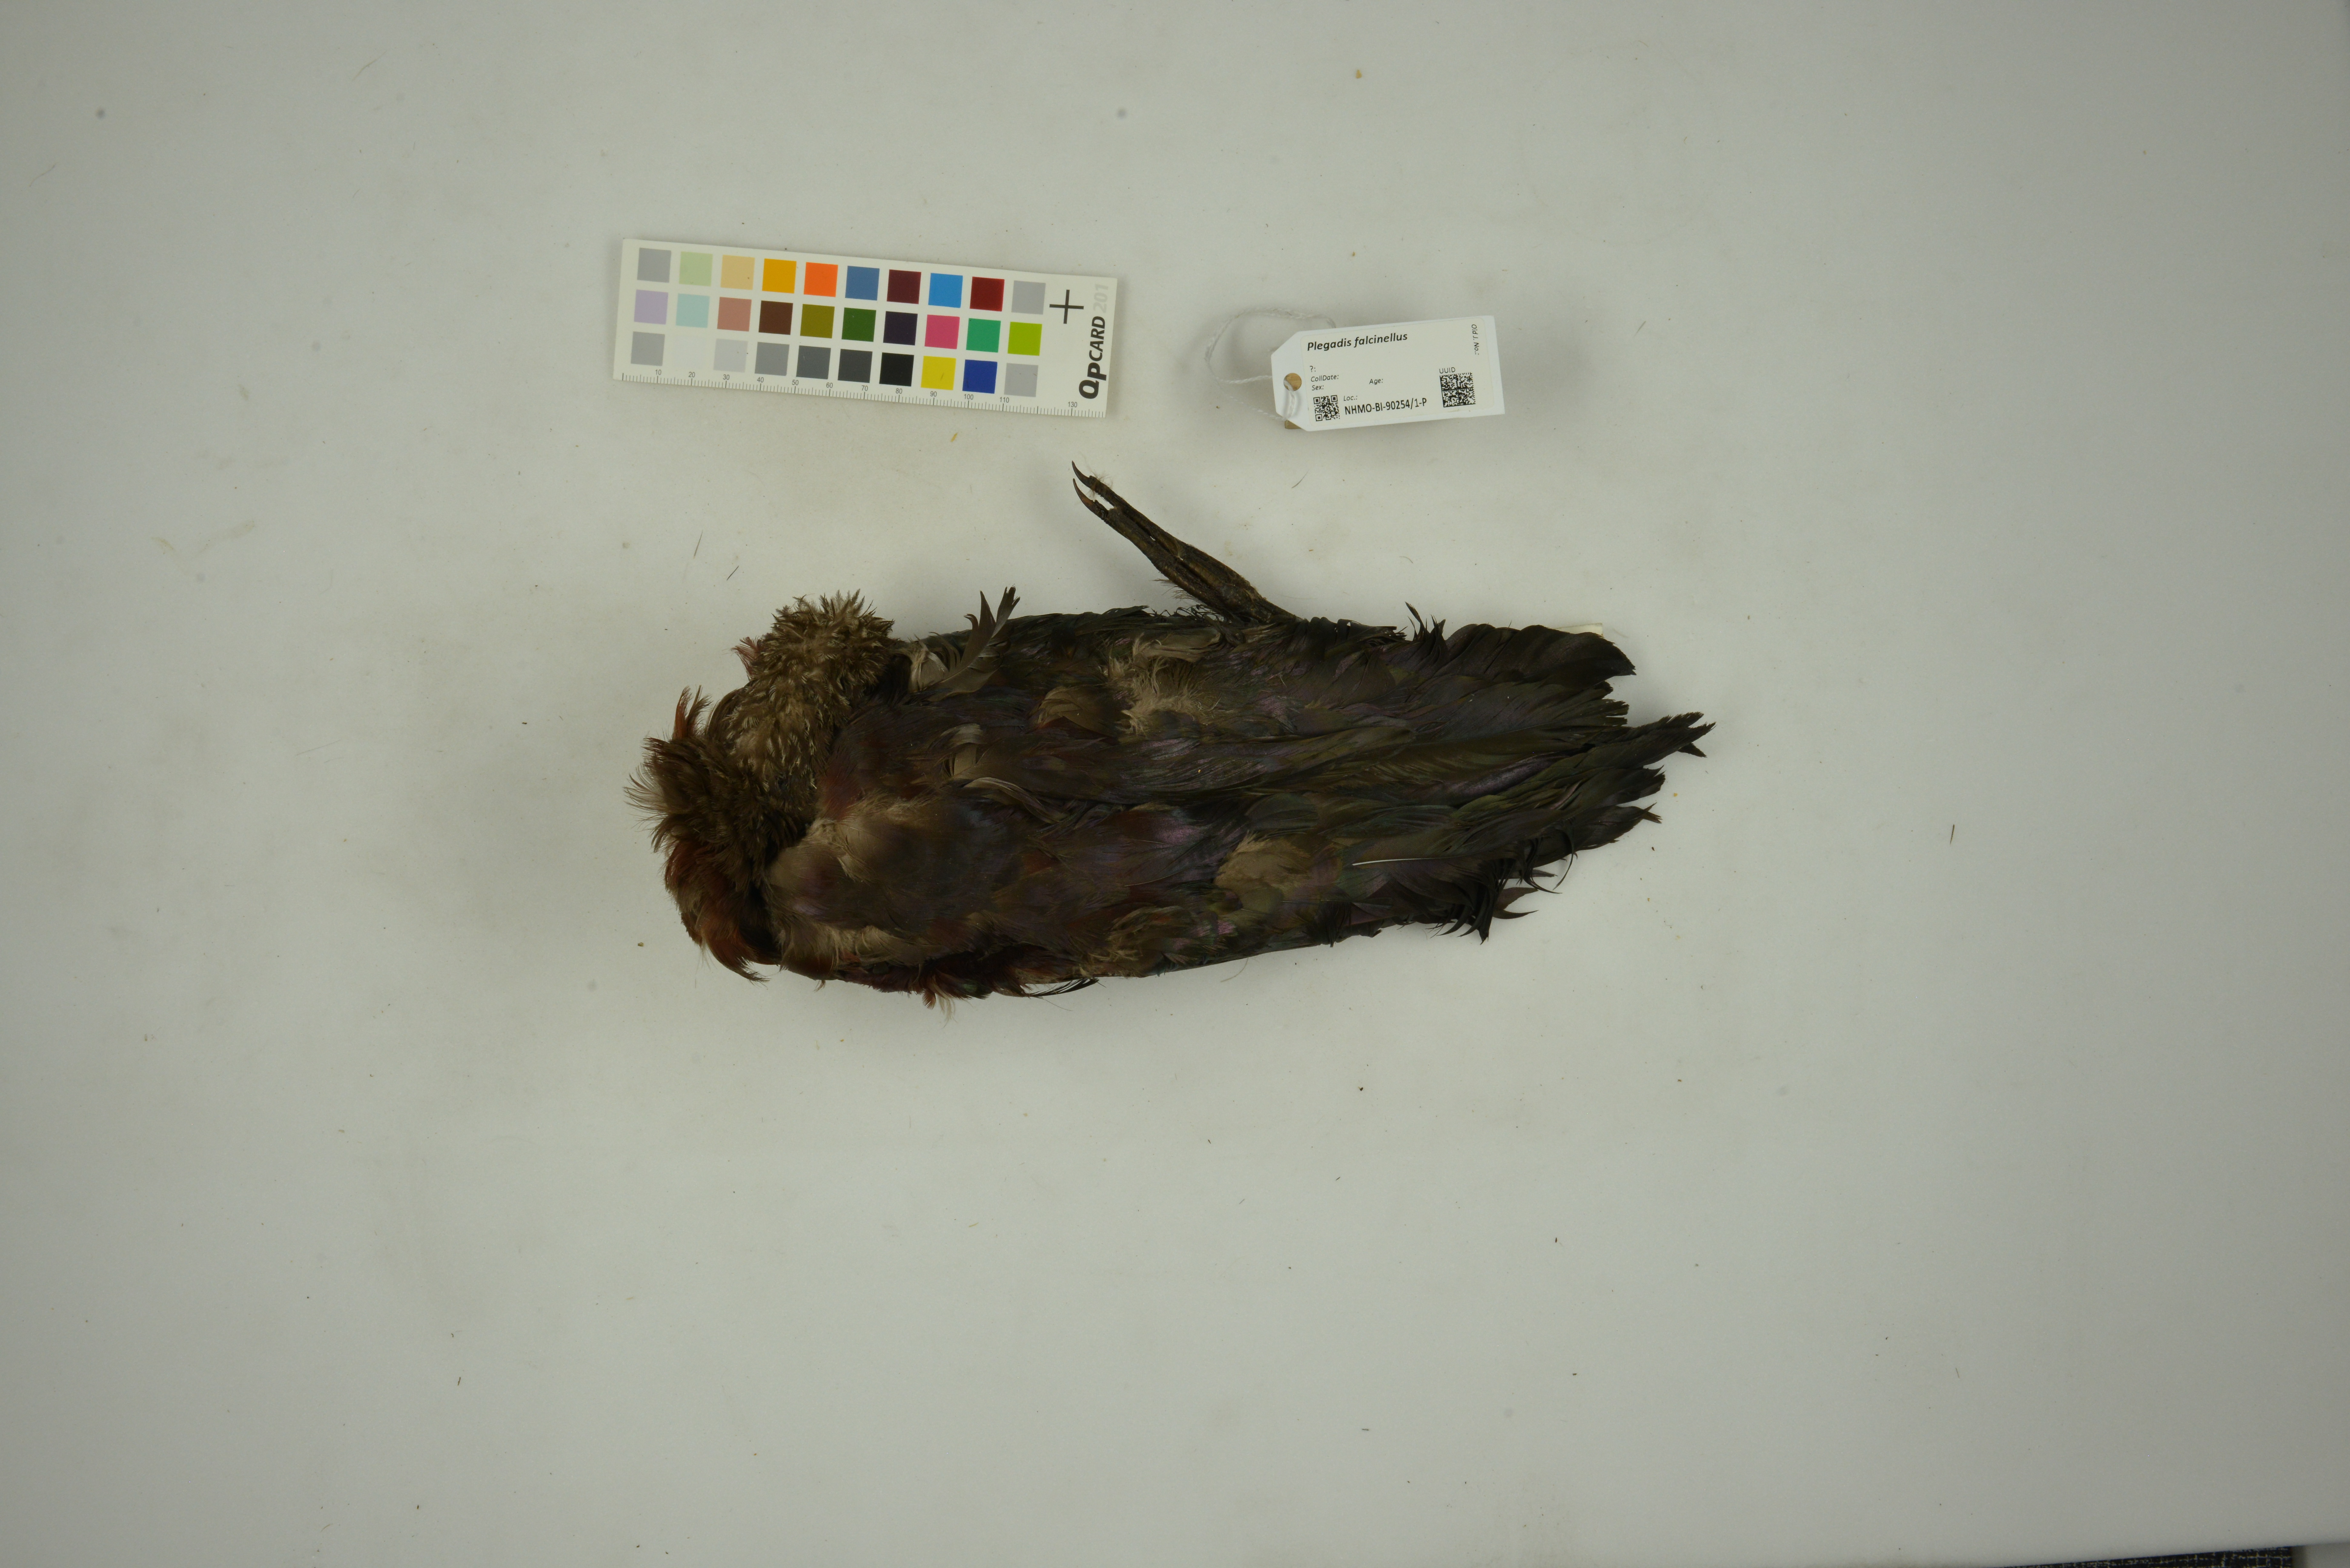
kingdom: Animalia
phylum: Chordata
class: Aves
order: Pelecaniformes
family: Threskiornithidae
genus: Plegadis
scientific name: Plegadis falcinellus
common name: Glossy ibis
